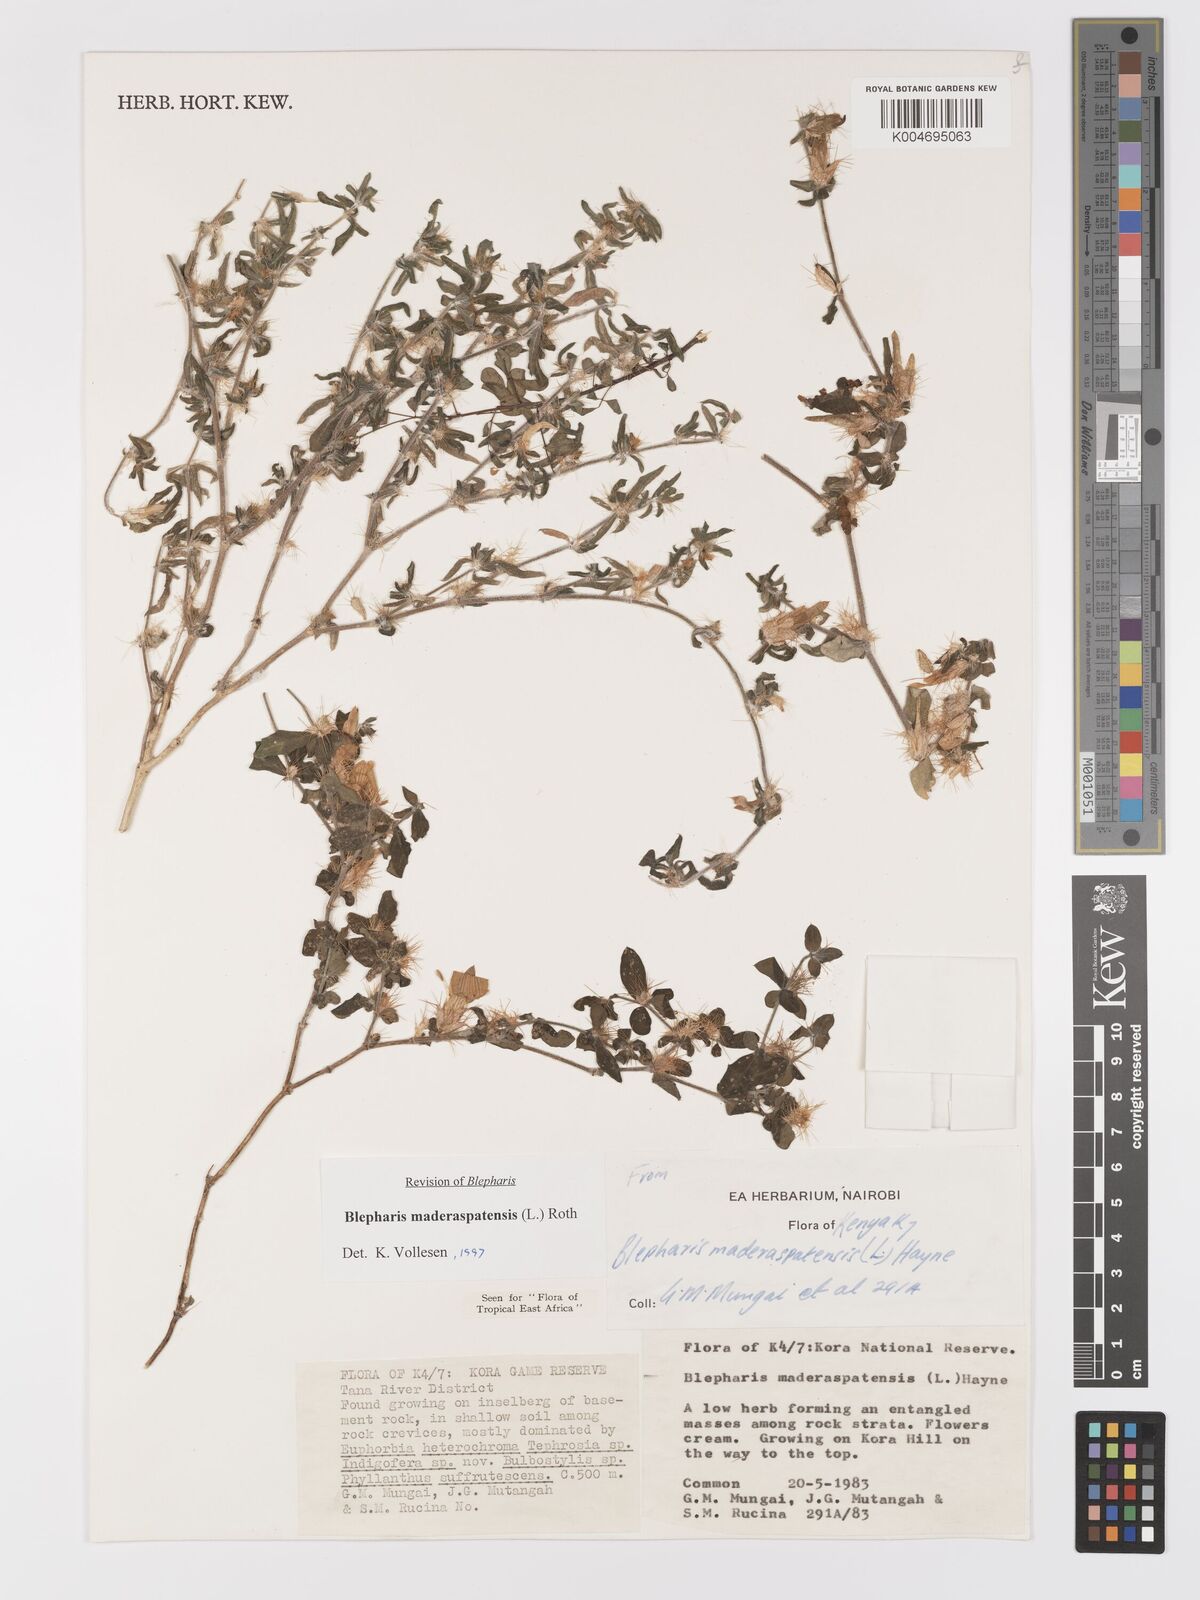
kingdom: Plantae
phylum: Tracheophyta
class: Magnoliopsida
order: Lamiales
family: Acanthaceae
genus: Blepharis
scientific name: Blepharis maderaspatensis
